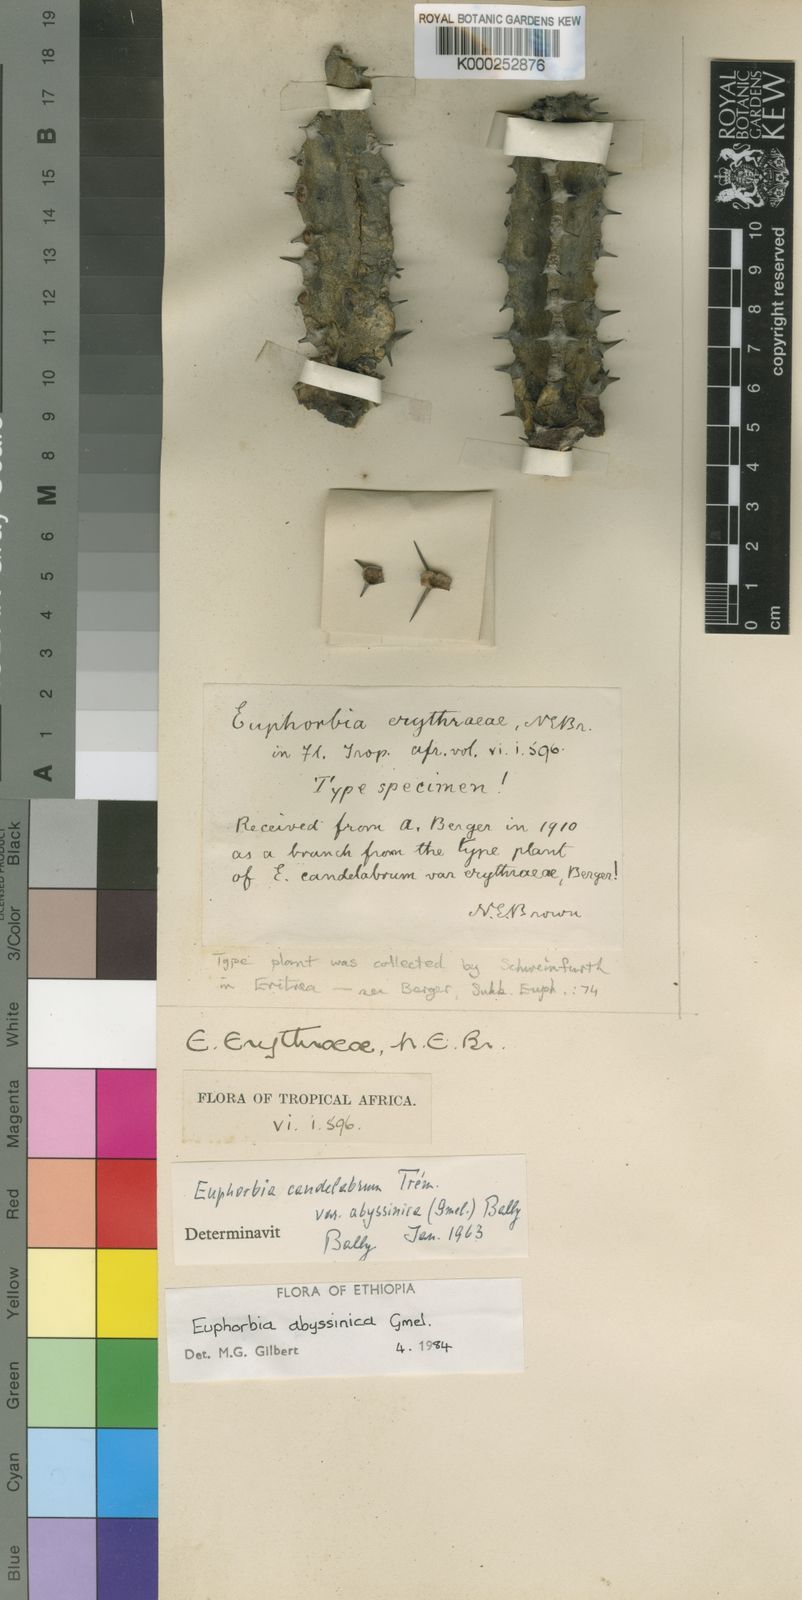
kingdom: Plantae
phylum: Tracheophyta
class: Magnoliopsida
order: Malpighiales
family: Euphorbiaceae
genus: Euphorbia
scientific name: Euphorbia abyssinica
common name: Abyssinian spurge
